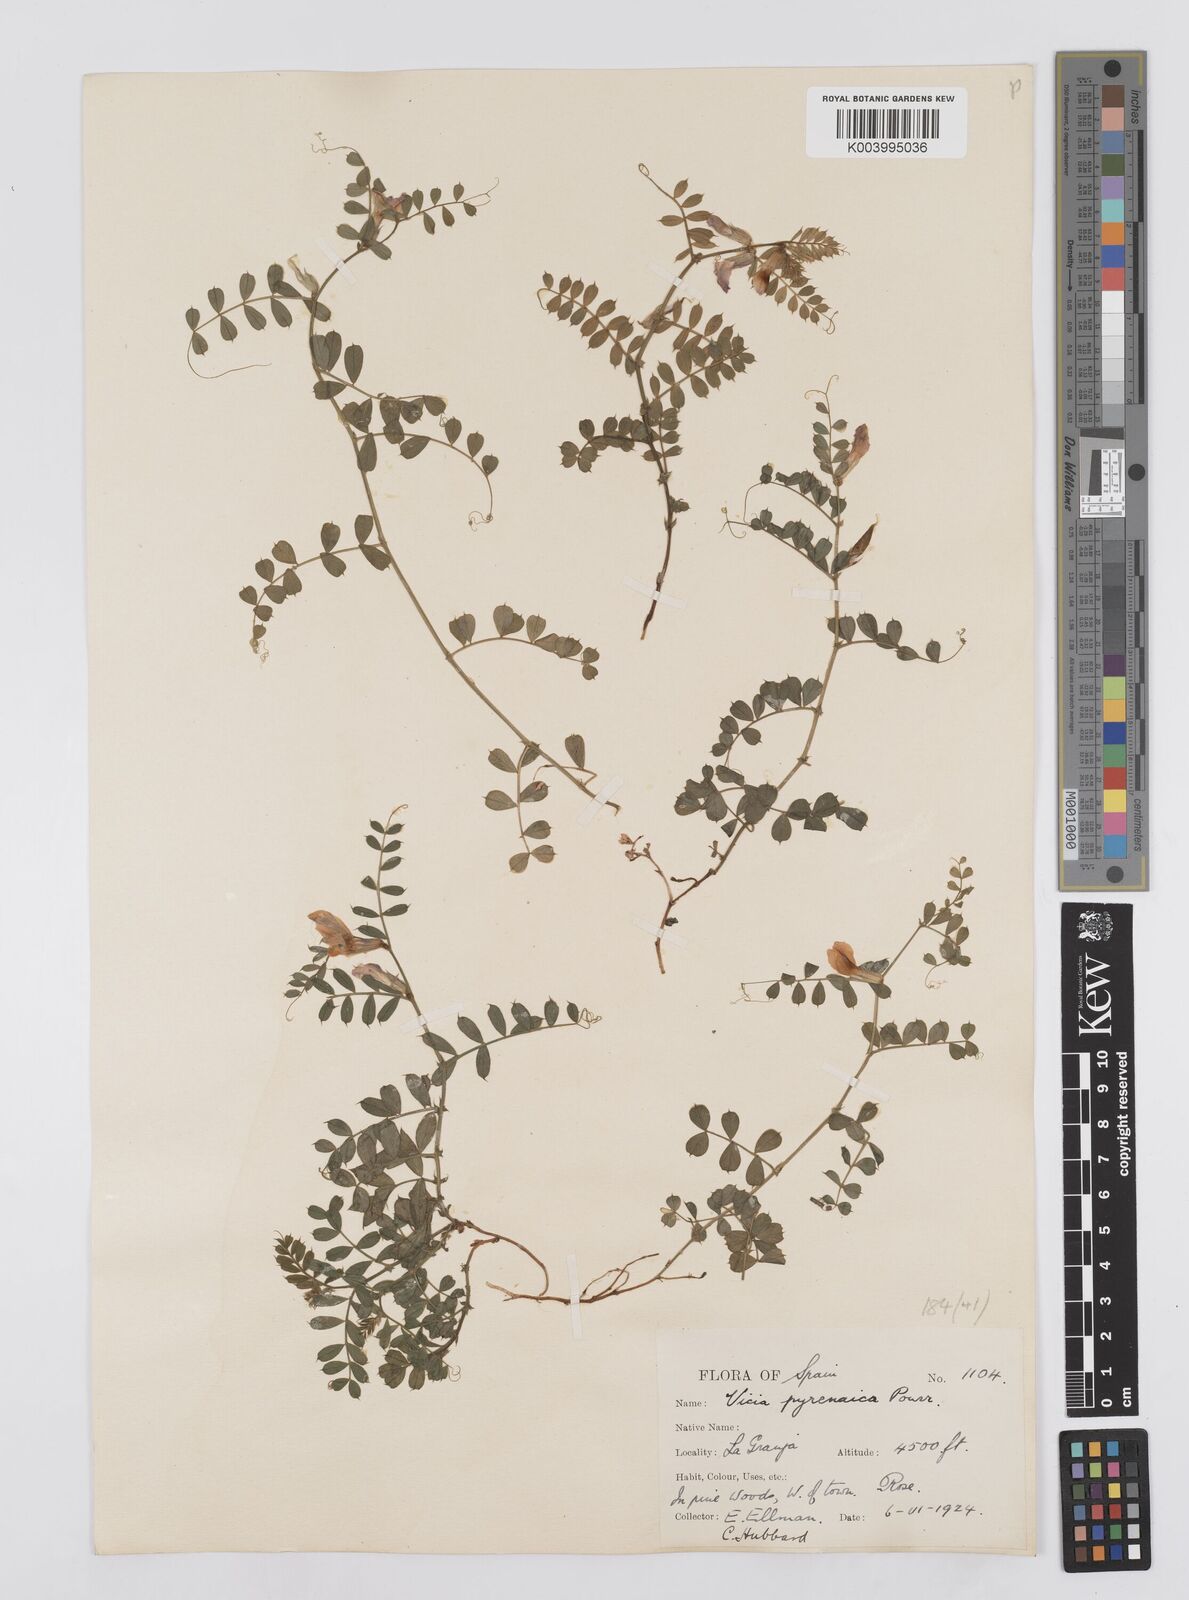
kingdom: Plantae
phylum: Tracheophyta
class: Magnoliopsida
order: Fabales
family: Fabaceae
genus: Vicia
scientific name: Vicia pyrenaica
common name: Pyrenean vetch
